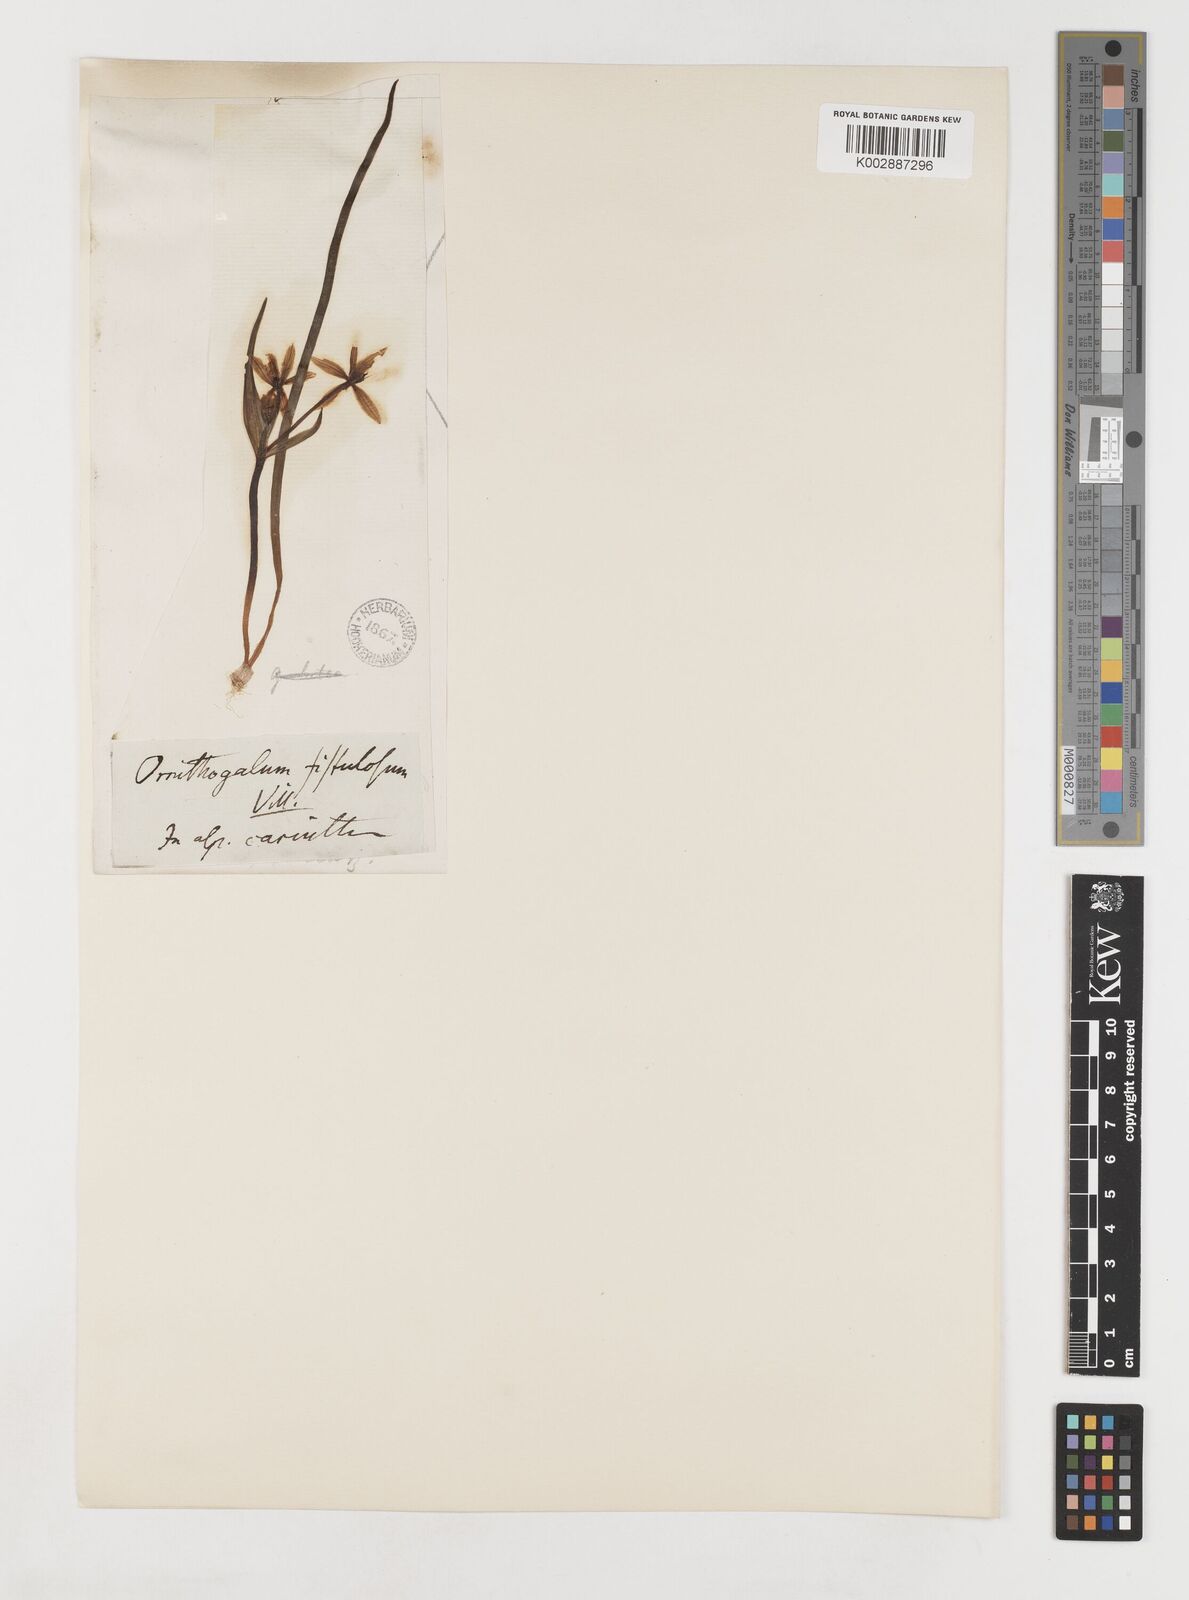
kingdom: Plantae
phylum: Tracheophyta
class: Liliopsida
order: Liliales
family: Liliaceae
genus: Gagea
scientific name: Gagea bohemica
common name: Early star-of-bethlehem
